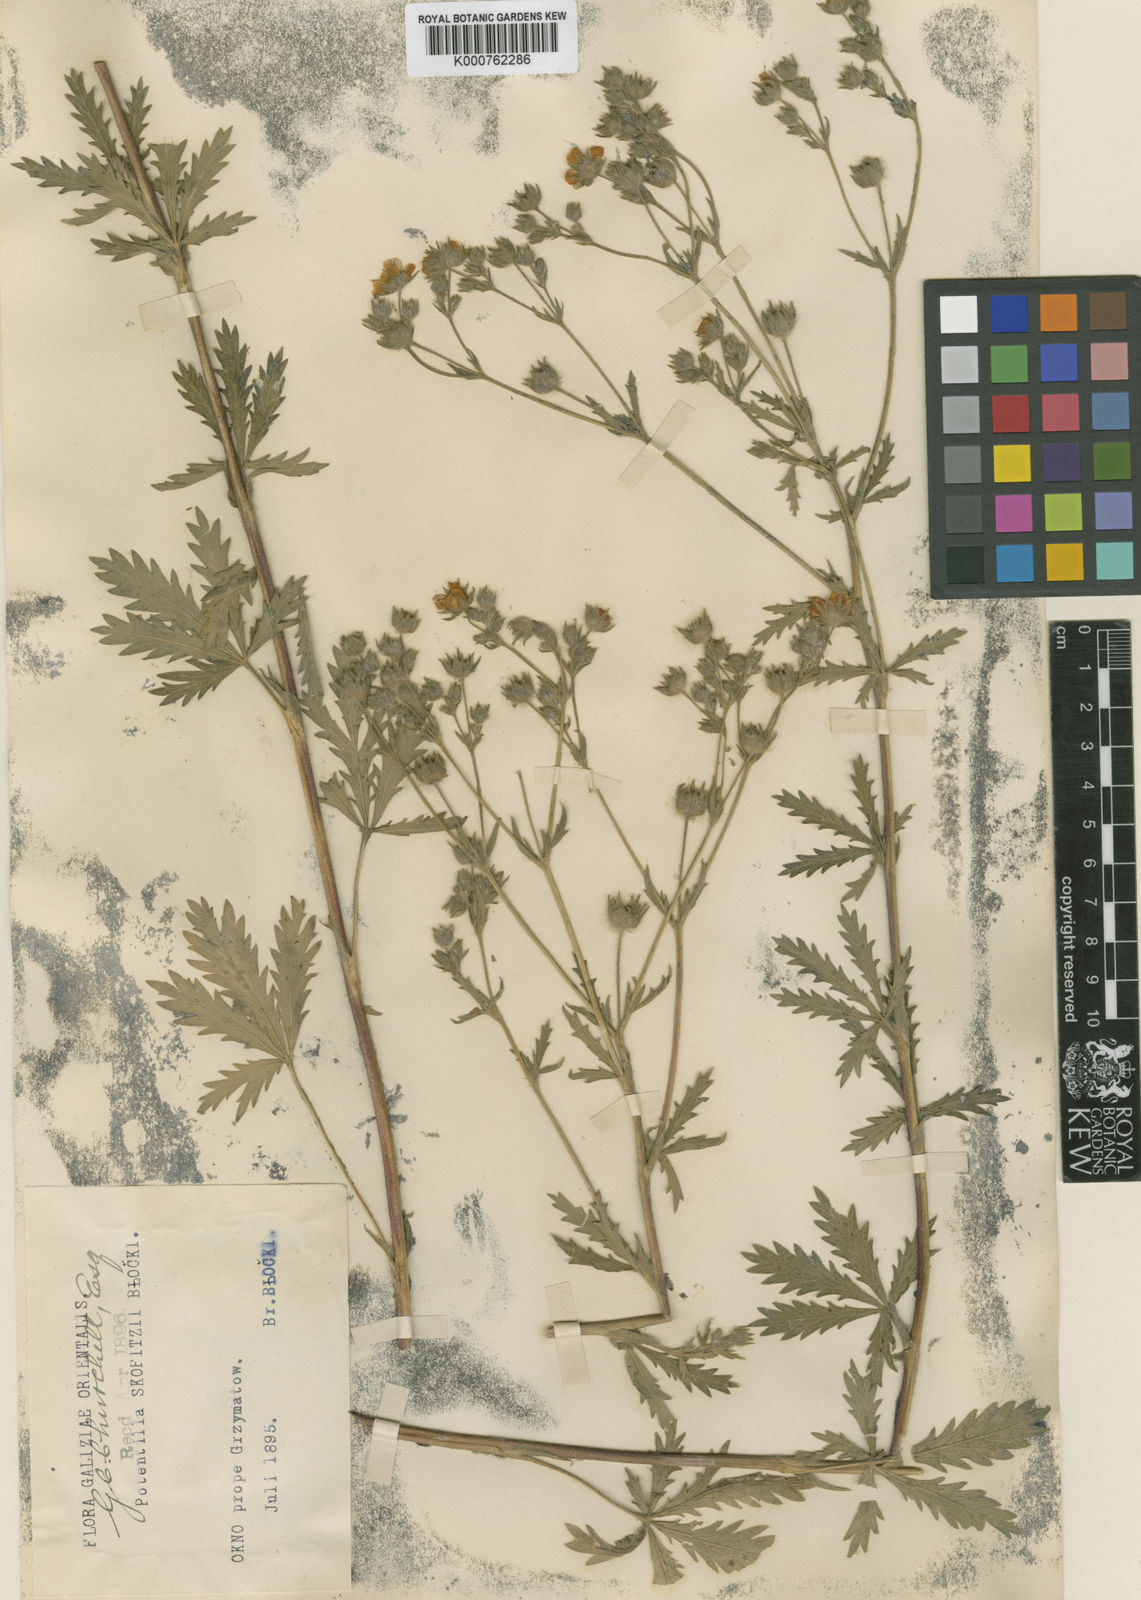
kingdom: Plantae
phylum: Tracheophyta
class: Magnoliopsida
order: Rosales
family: Rosaceae
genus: Potentilla
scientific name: Potentilla recta
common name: Sulphur cinquefoil
